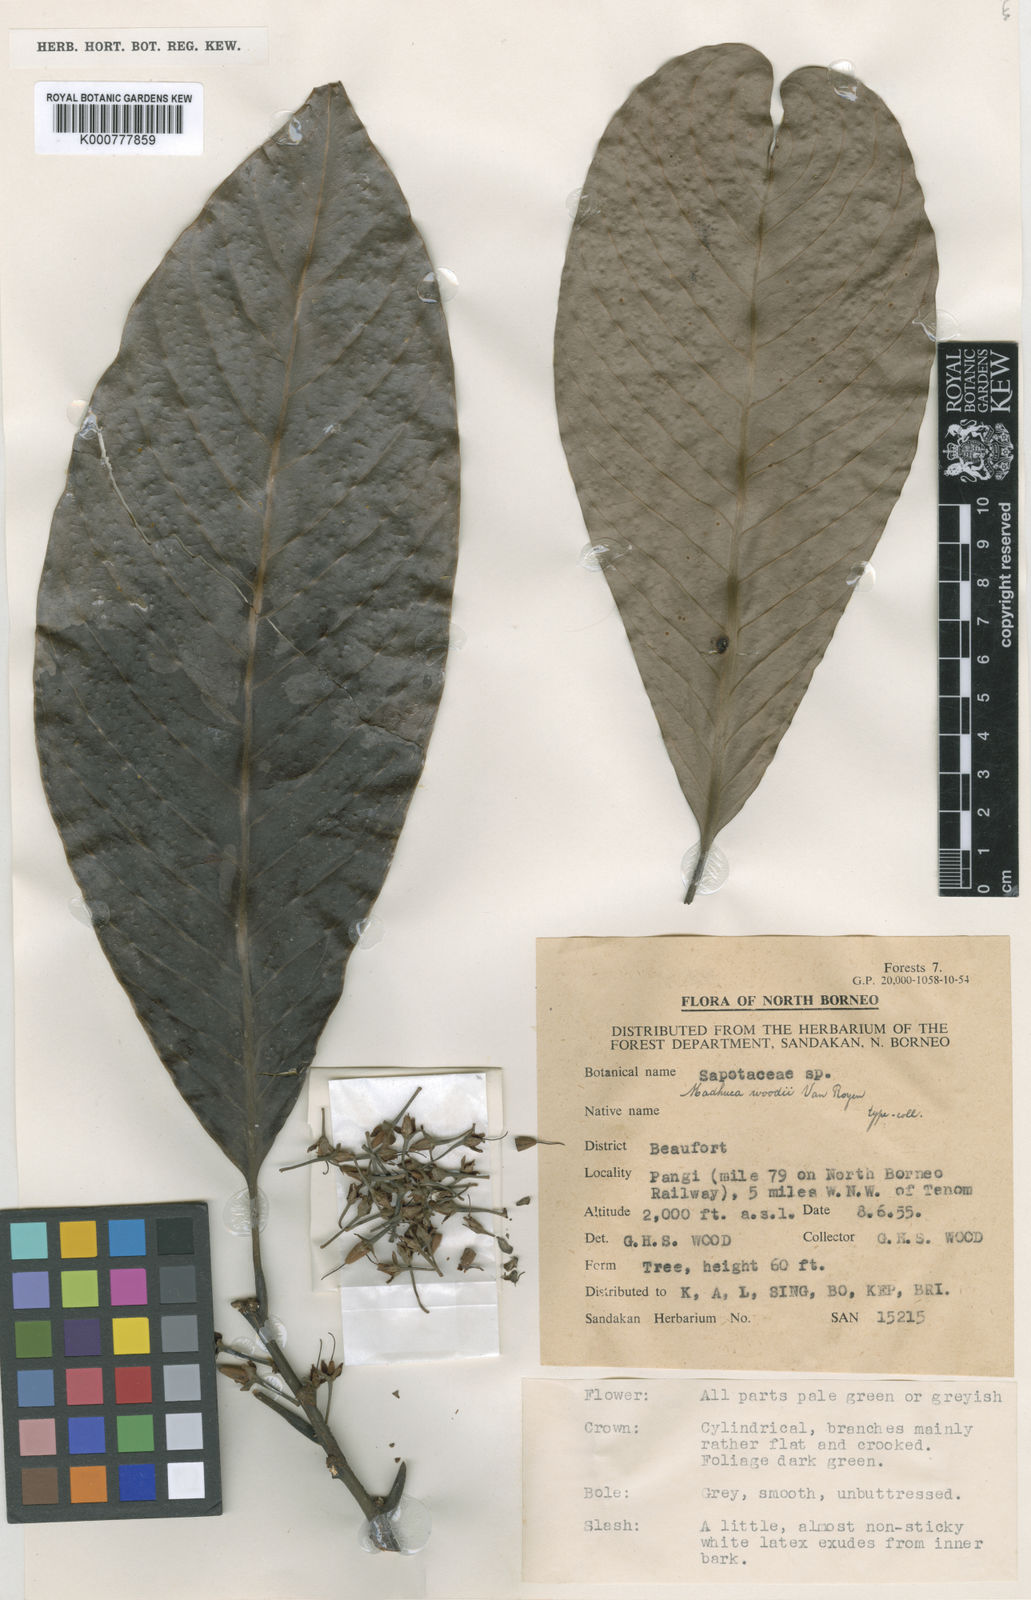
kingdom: Plantae
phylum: Tracheophyta
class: Magnoliopsida
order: Ericales
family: Sapotaceae
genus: Madhuca
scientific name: Madhuca woodii
